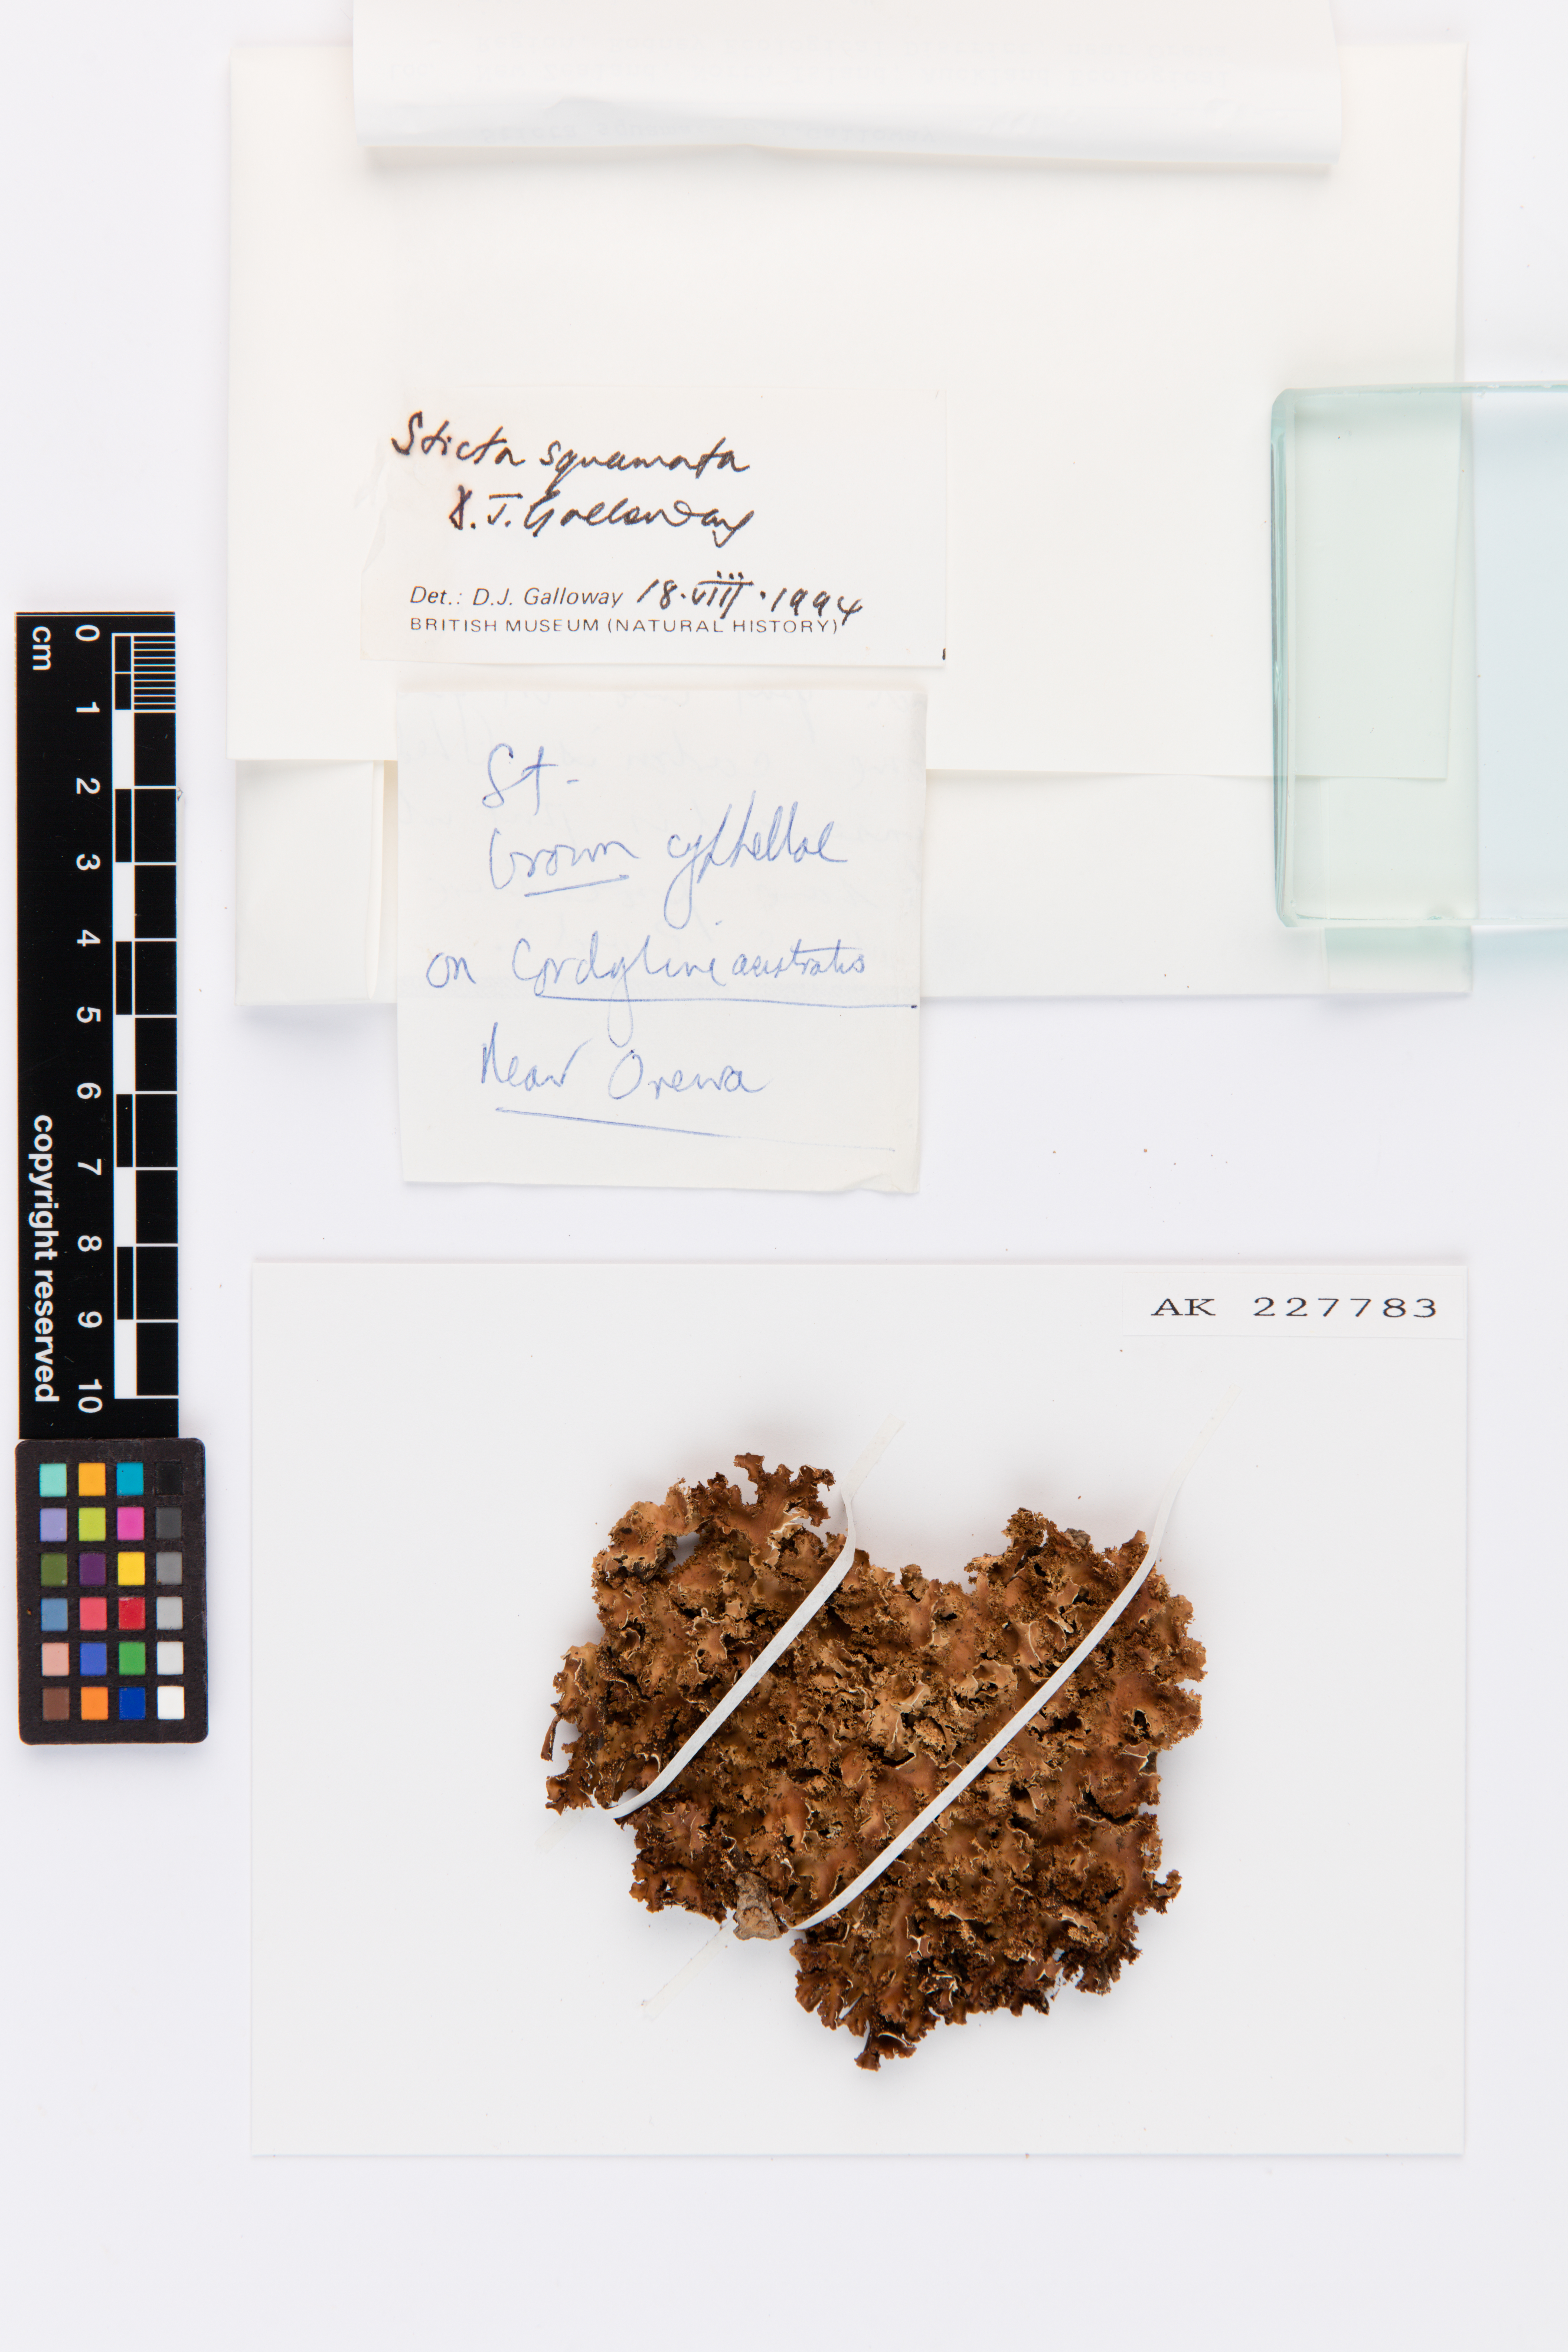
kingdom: Fungi
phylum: Ascomycota
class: Lecanoromycetes
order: Peltigerales
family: Lobariaceae
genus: Sticta
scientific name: Sticta squamata
